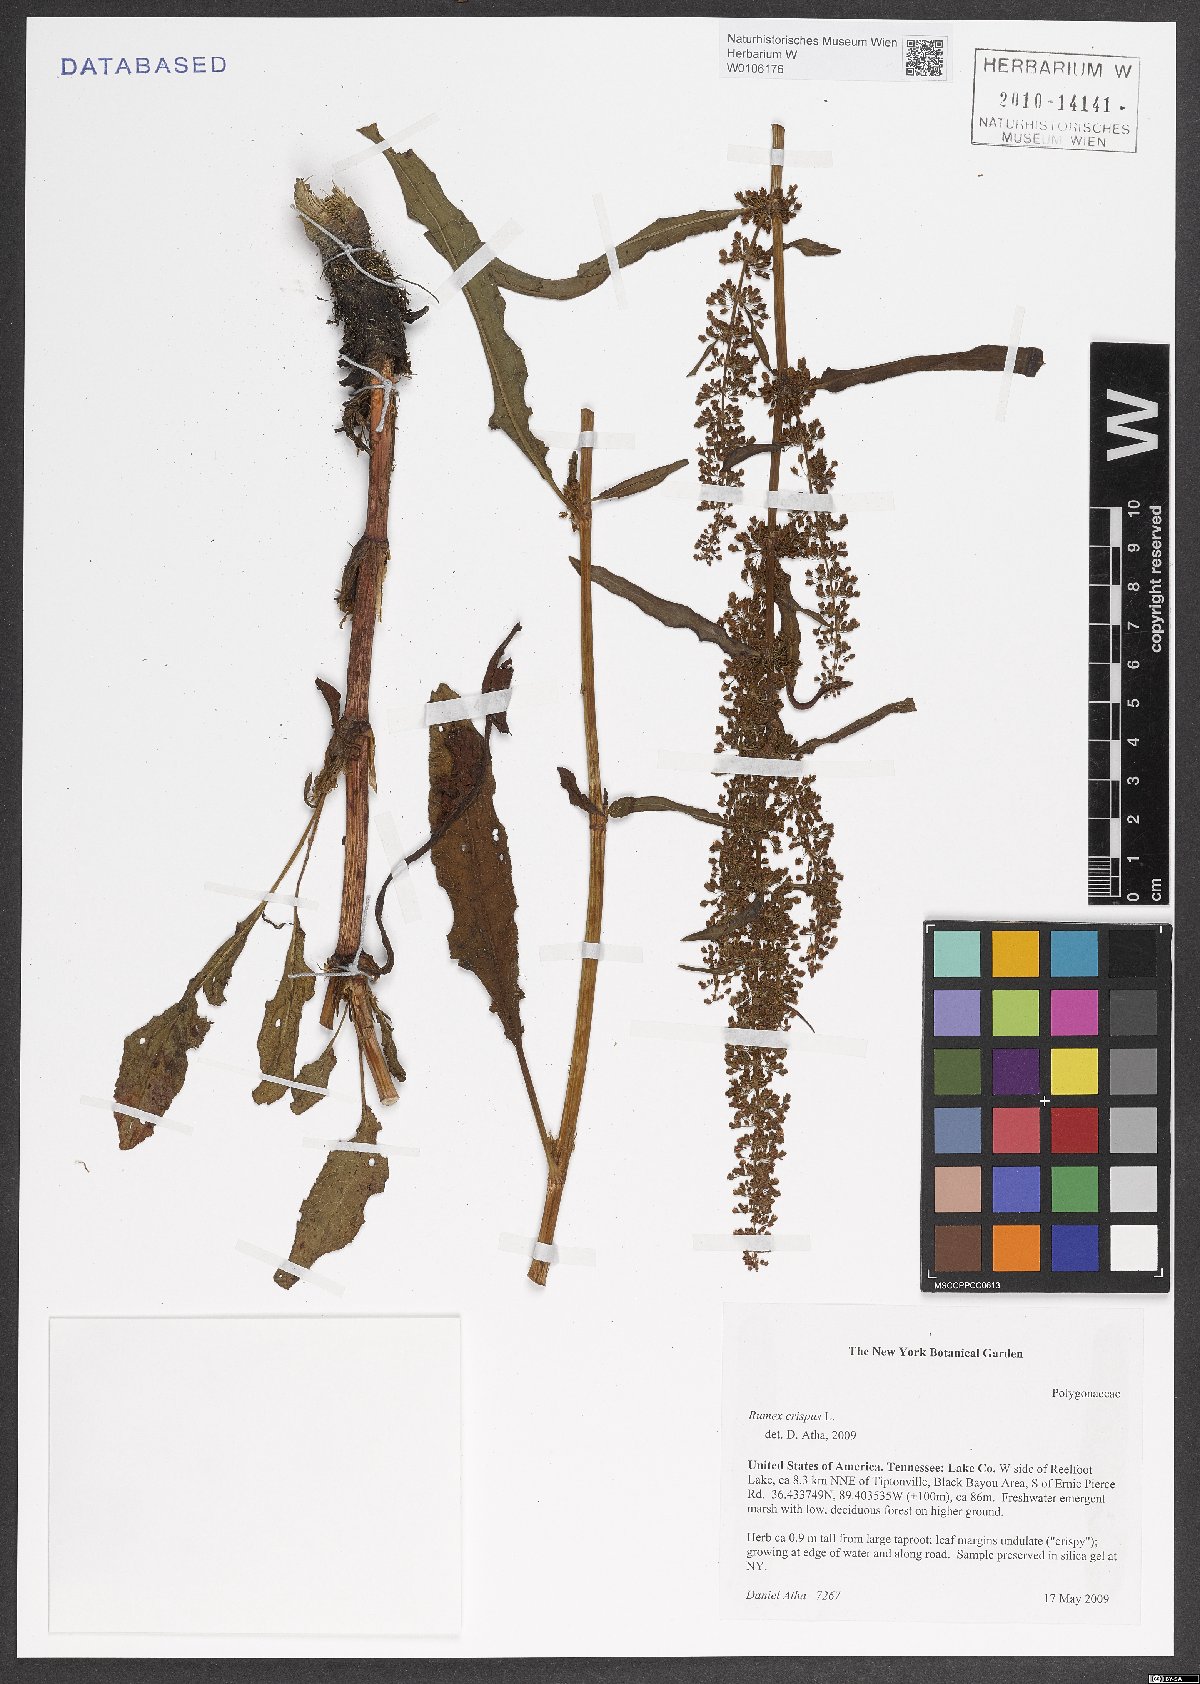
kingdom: Plantae
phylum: Tracheophyta
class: Magnoliopsida
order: Caryophyllales
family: Polygonaceae
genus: Rumex
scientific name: Rumex crispus
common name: Curled dock
